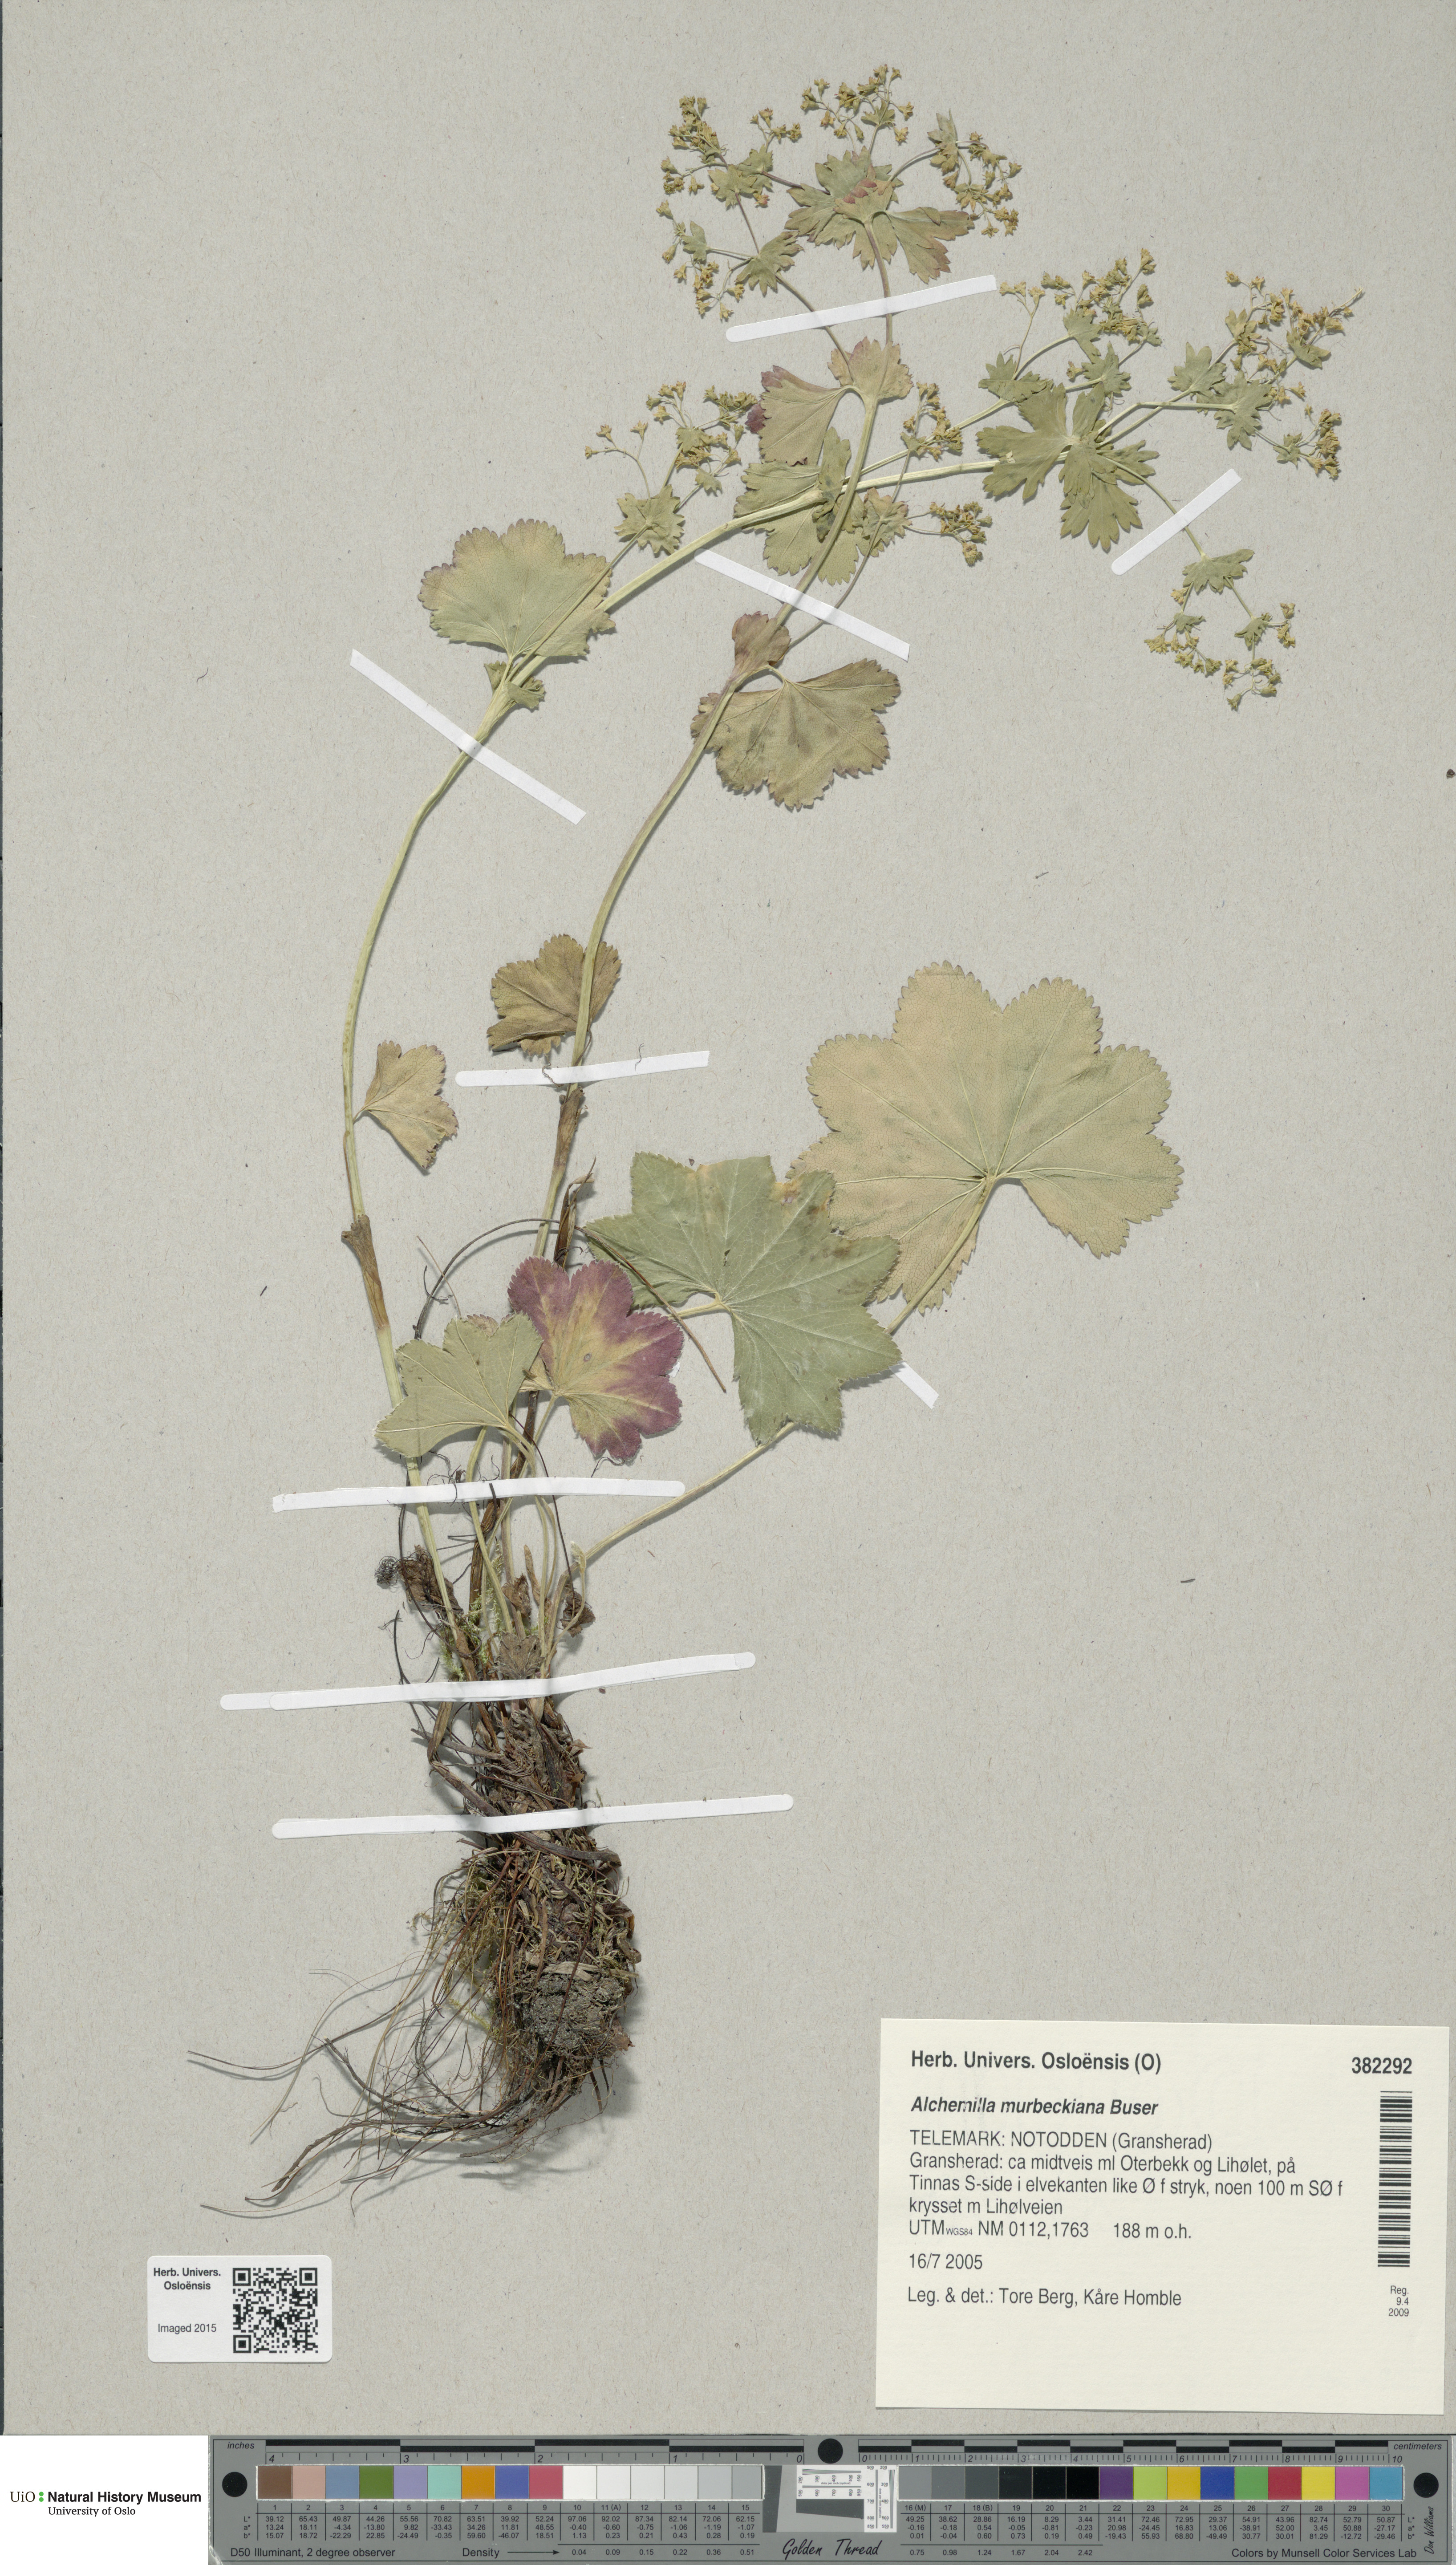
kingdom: Plantae
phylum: Tracheophyta
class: Magnoliopsida
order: Rosales
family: Rosaceae
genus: Alchemilla
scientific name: Alchemilla murbeckiana
